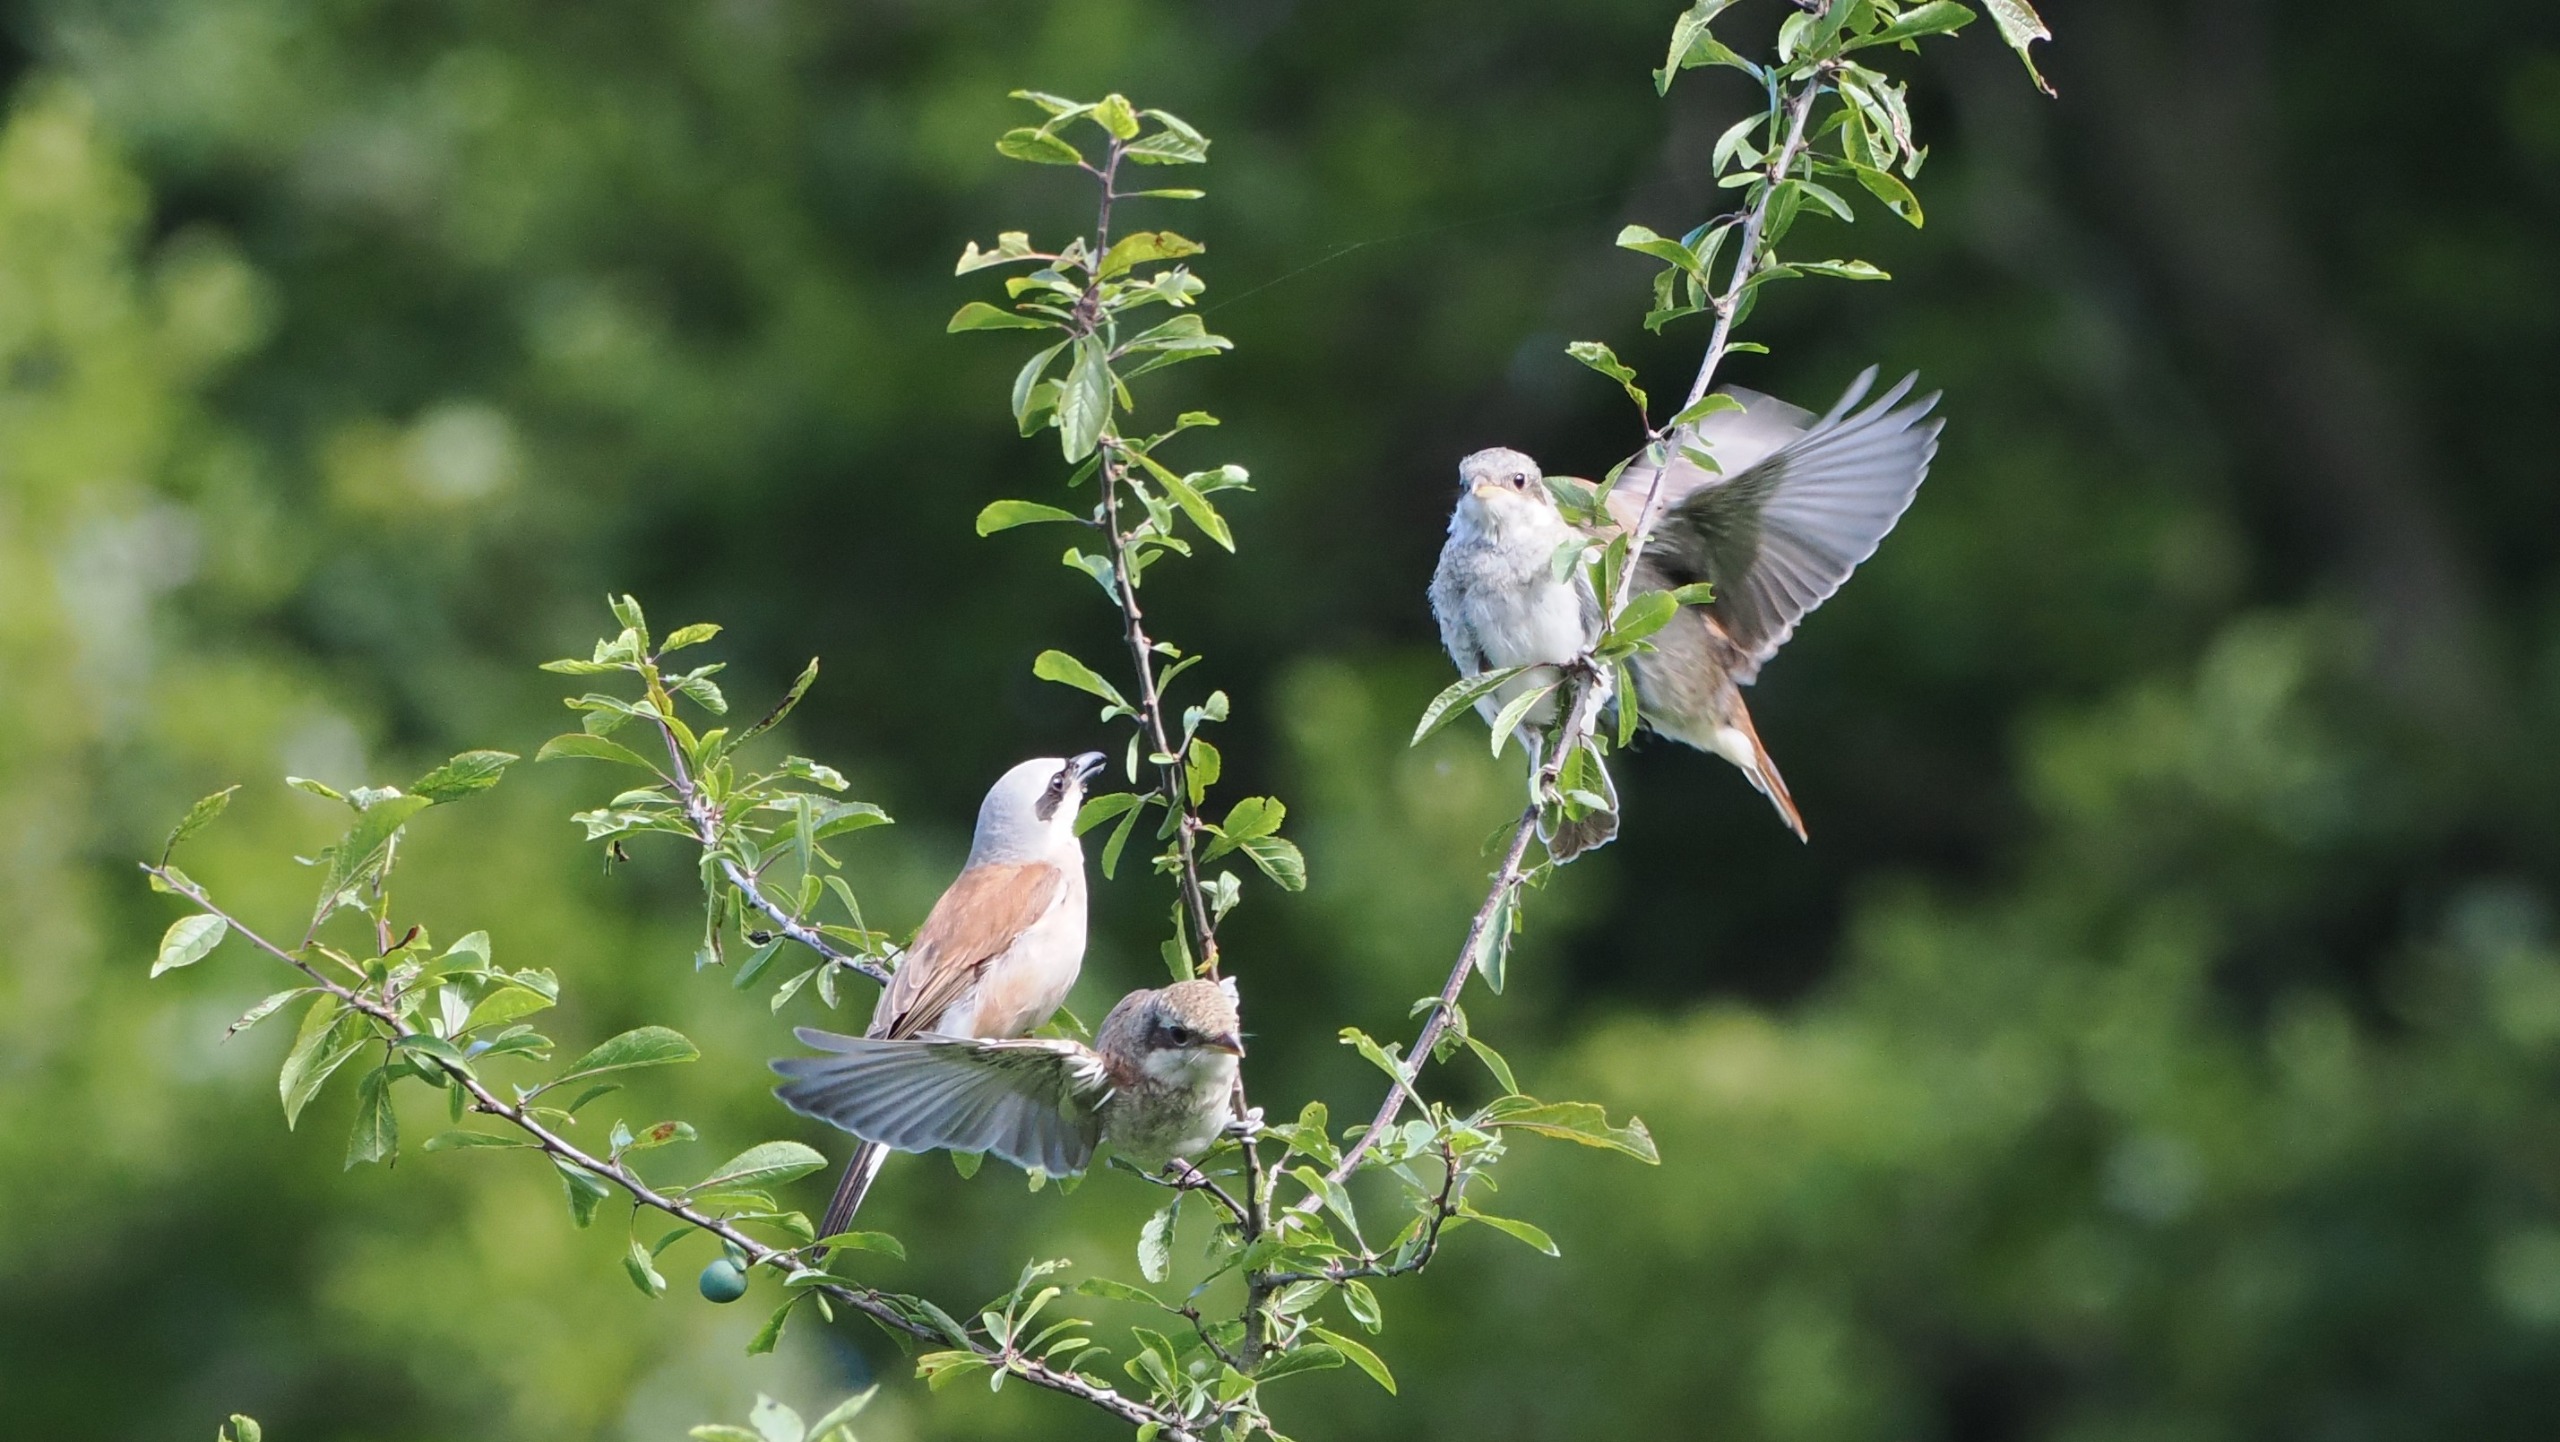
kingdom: Animalia
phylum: Chordata
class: Aves
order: Passeriformes
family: Laniidae
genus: Lanius
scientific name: Lanius collurio
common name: Rødrygget tornskade
